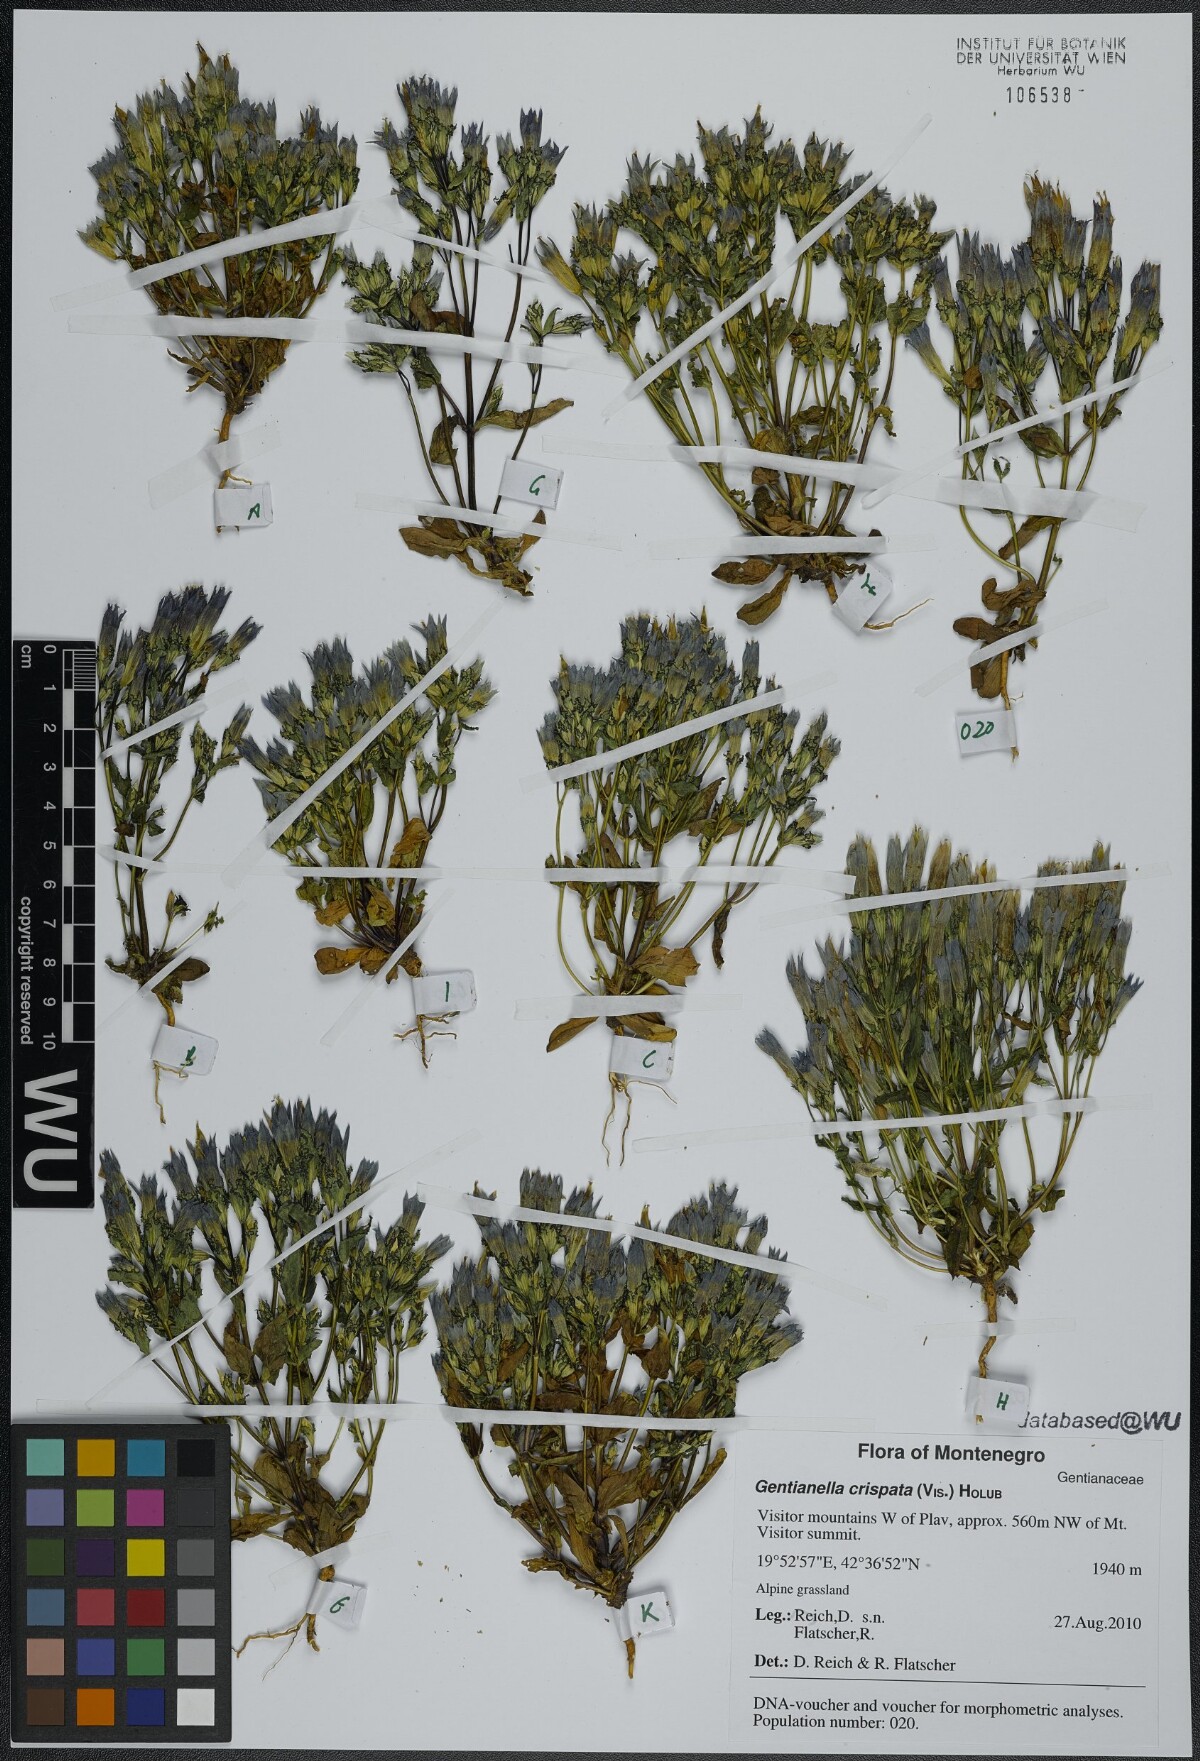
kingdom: Plantae
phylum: Tracheophyta
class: Magnoliopsida
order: Gentianales
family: Gentianaceae
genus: Gentianella
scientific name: Gentianella crispata
